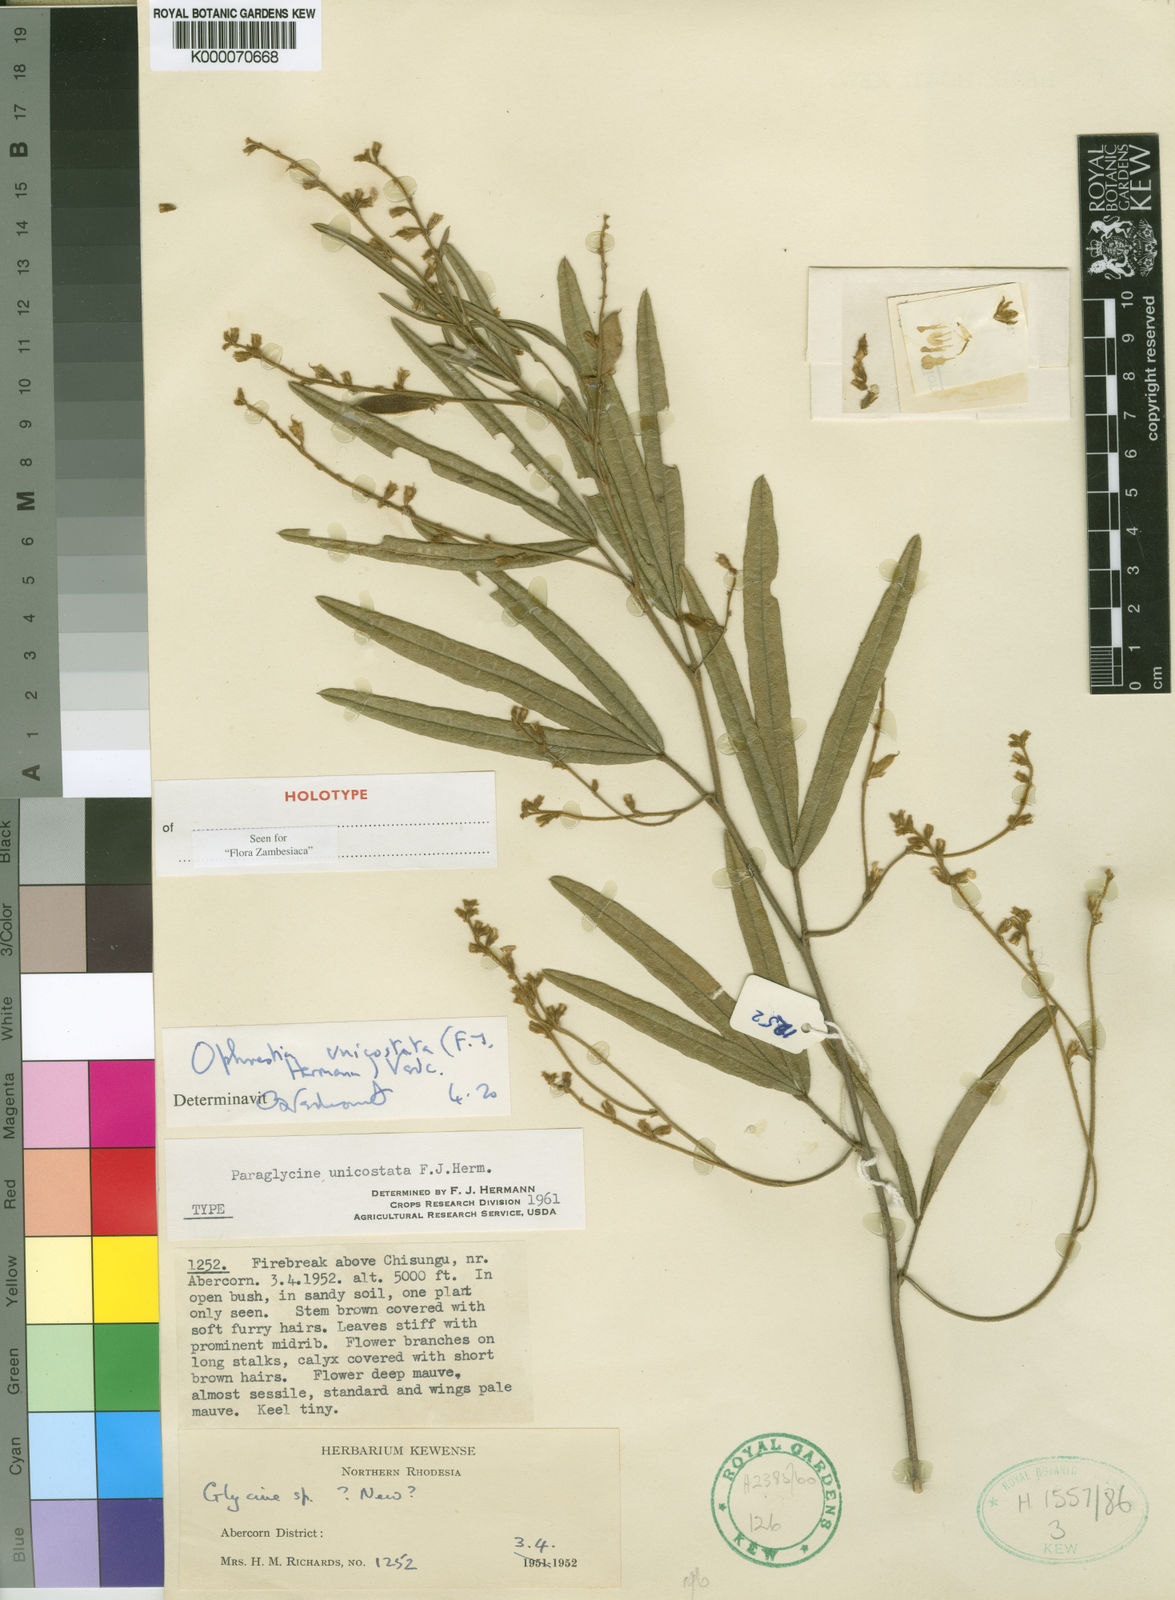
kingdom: Plantae
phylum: Tracheophyta
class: Magnoliopsida
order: Fabales
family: Fabaceae
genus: Ophrestia
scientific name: Ophrestia unicostata
